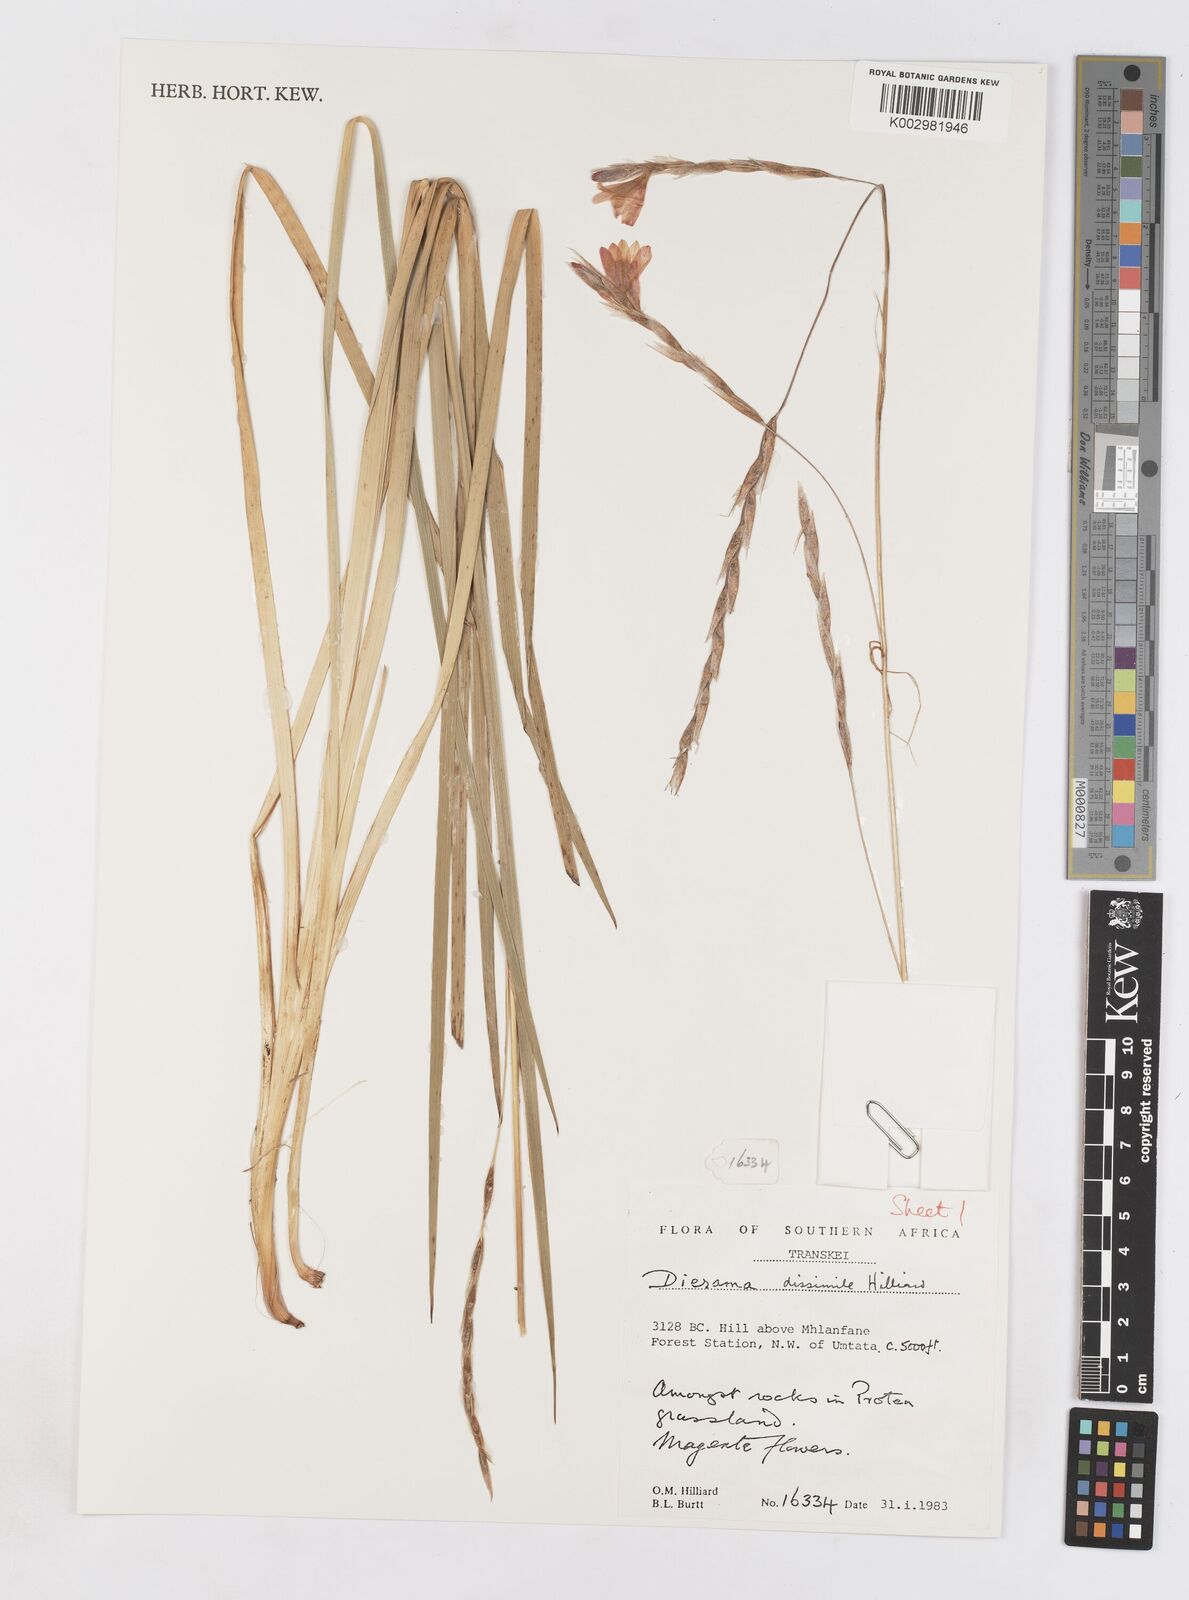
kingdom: Plantae
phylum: Tracheophyta
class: Liliopsida
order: Asparagales
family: Iridaceae
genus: Dierama
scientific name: Dierama dissimile
